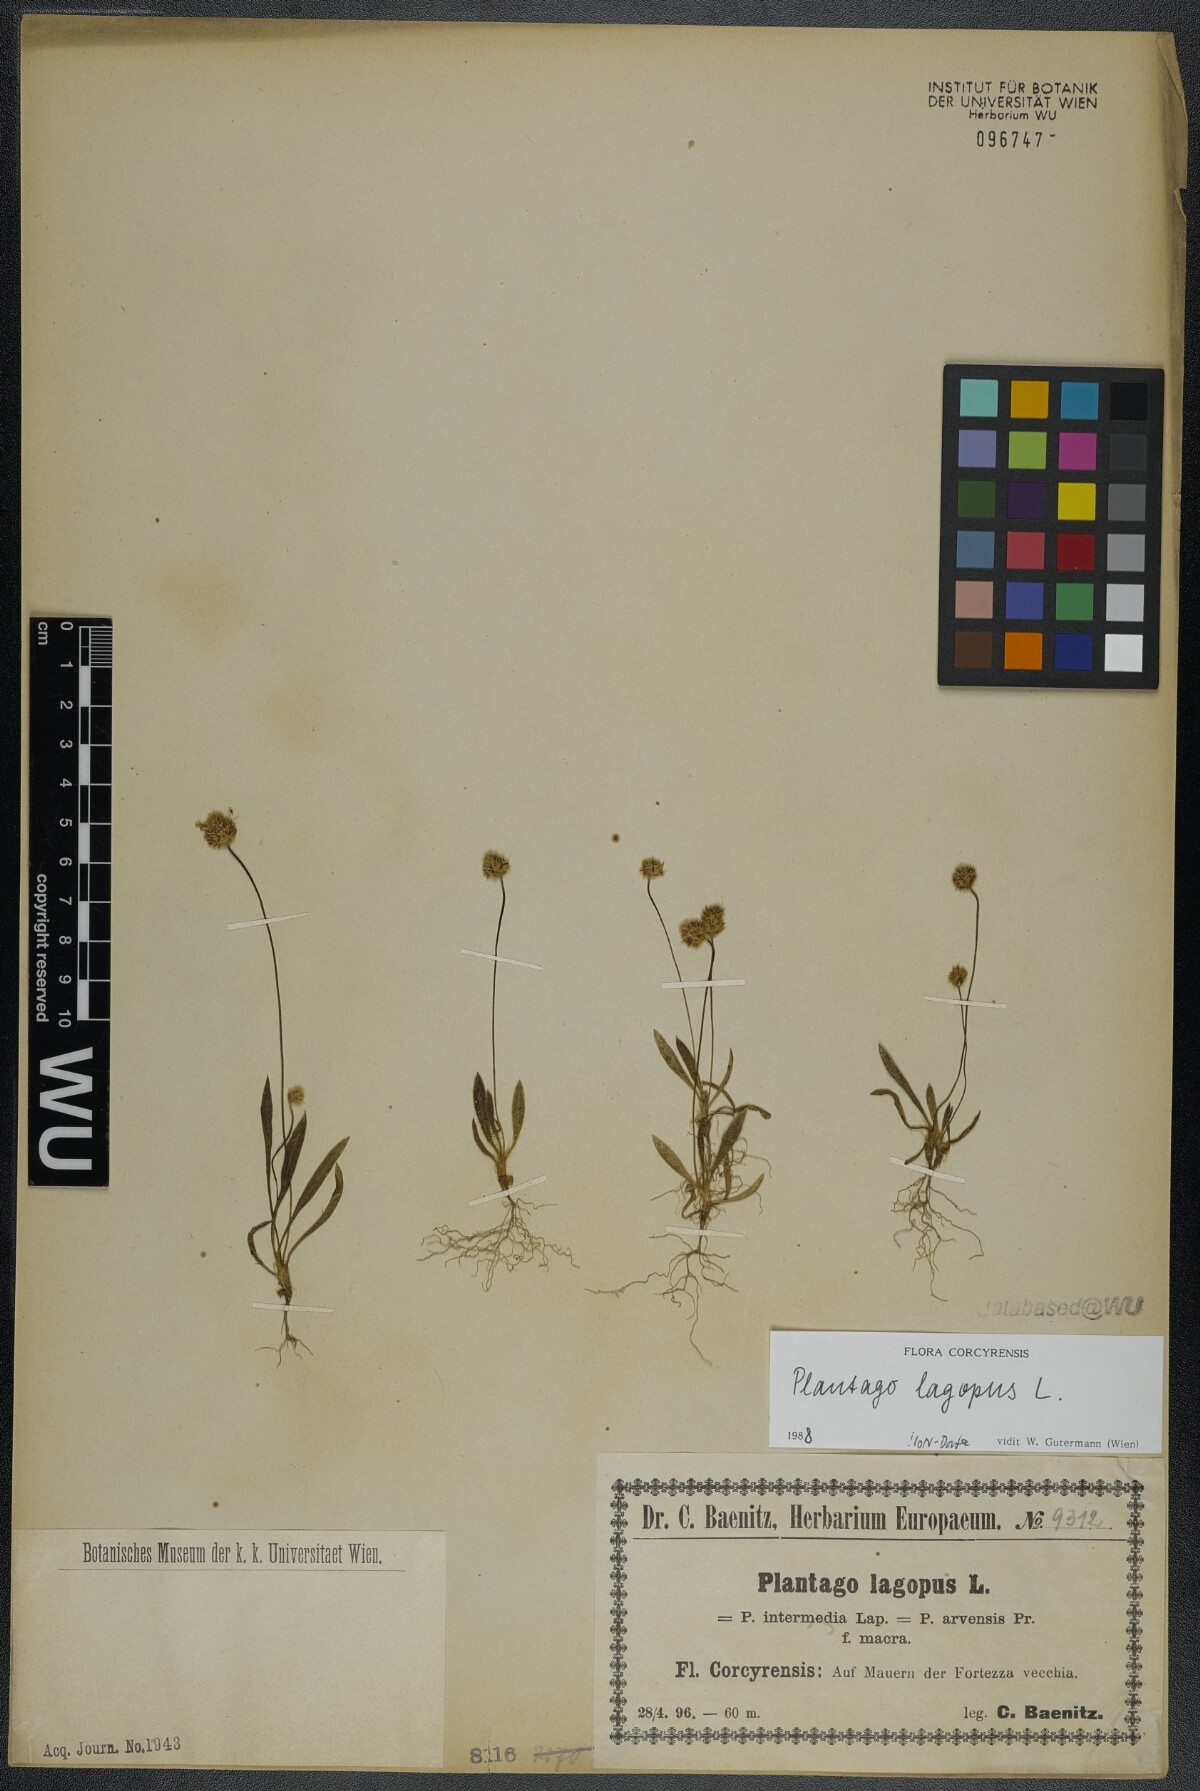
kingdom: Plantae
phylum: Tracheophyta
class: Magnoliopsida
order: Lamiales
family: Plantaginaceae
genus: Plantago
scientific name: Plantago lagopus
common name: Hare-foot plantain
